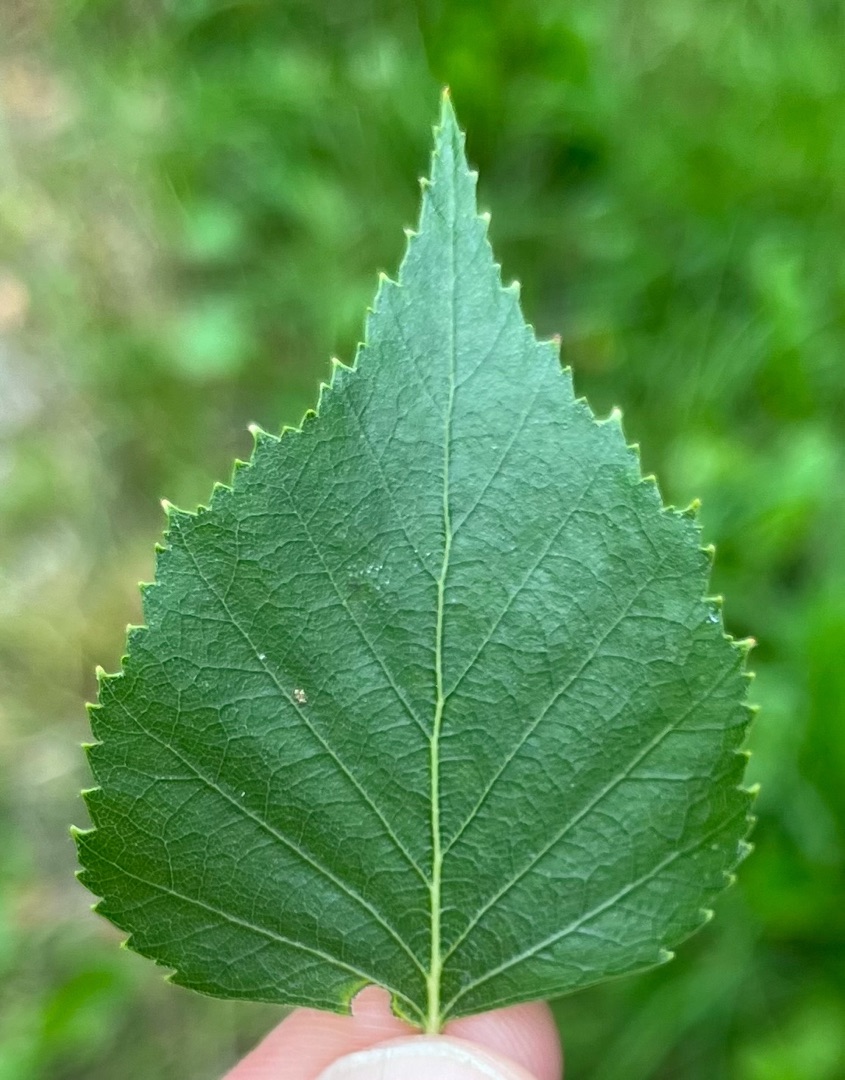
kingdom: Plantae
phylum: Tracheophyta
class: Magnoliopsida
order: Fagales
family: Betulaceae
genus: Betula
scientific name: Betula pendula
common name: Vorte-birk
